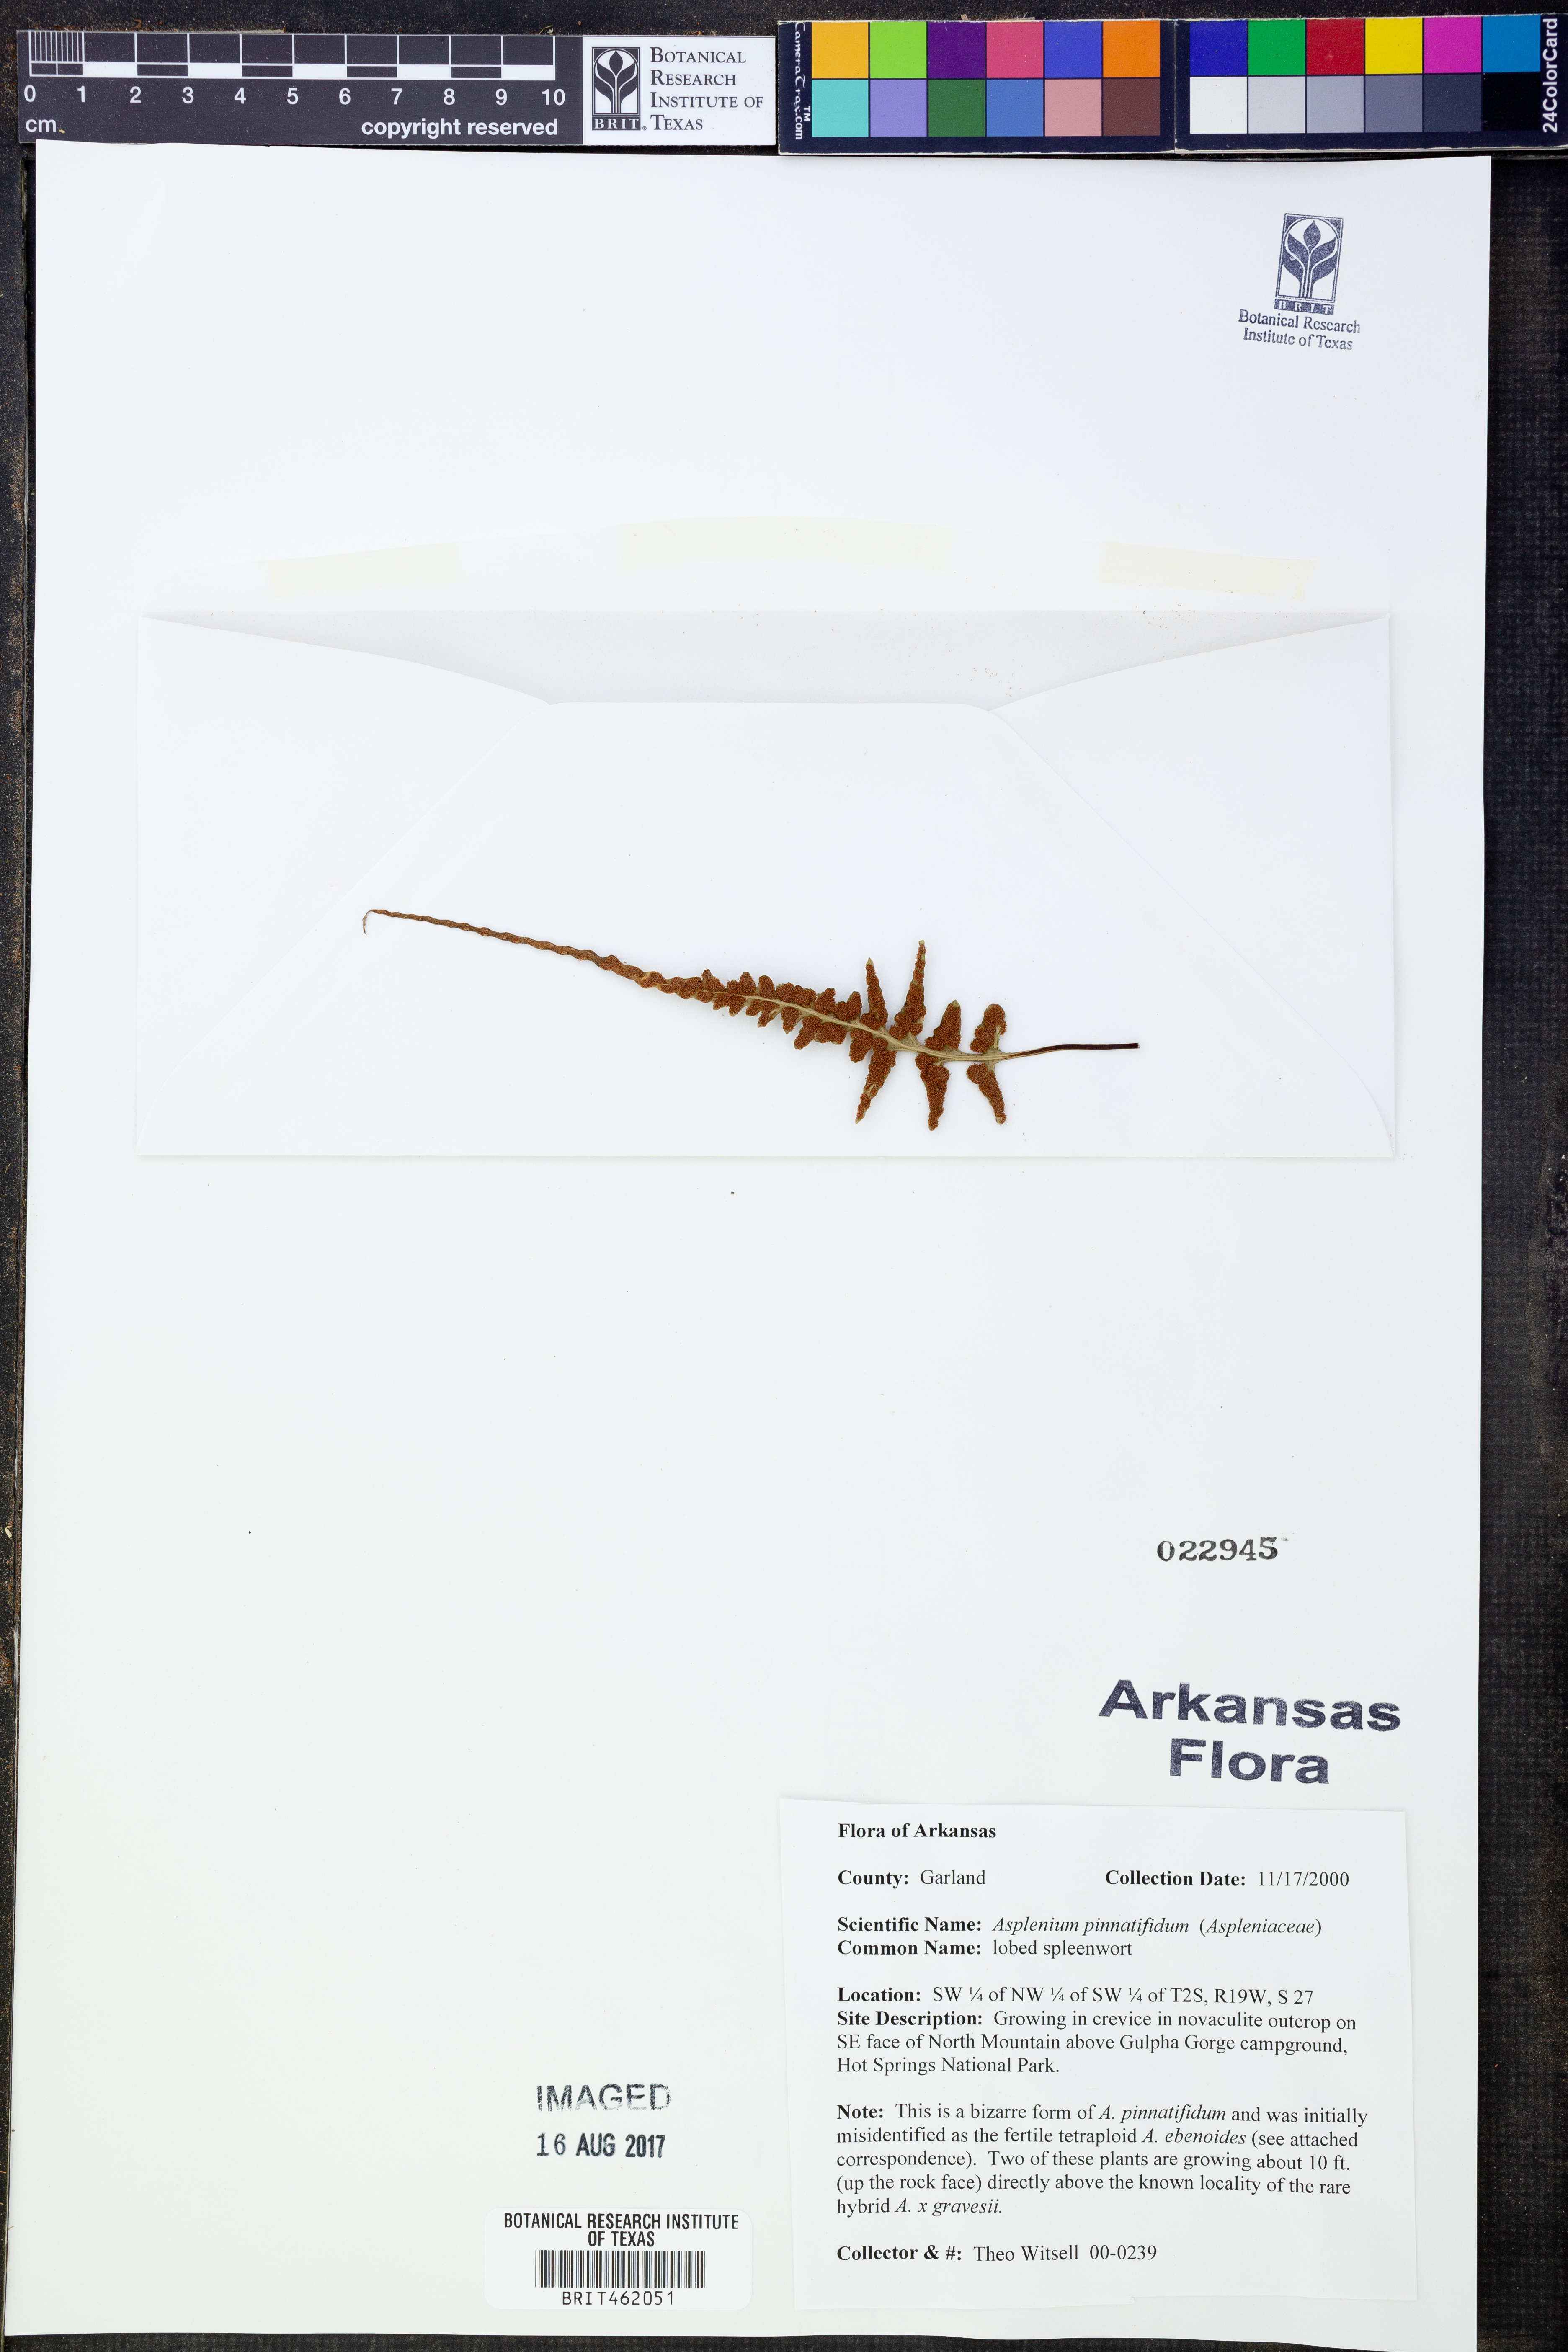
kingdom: Plantae
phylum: Tracheophyta
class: Polypodiopsida
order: Polypodiales
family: Aspleniaceae
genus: Asplenium
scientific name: Asplenium pinnatifidum
